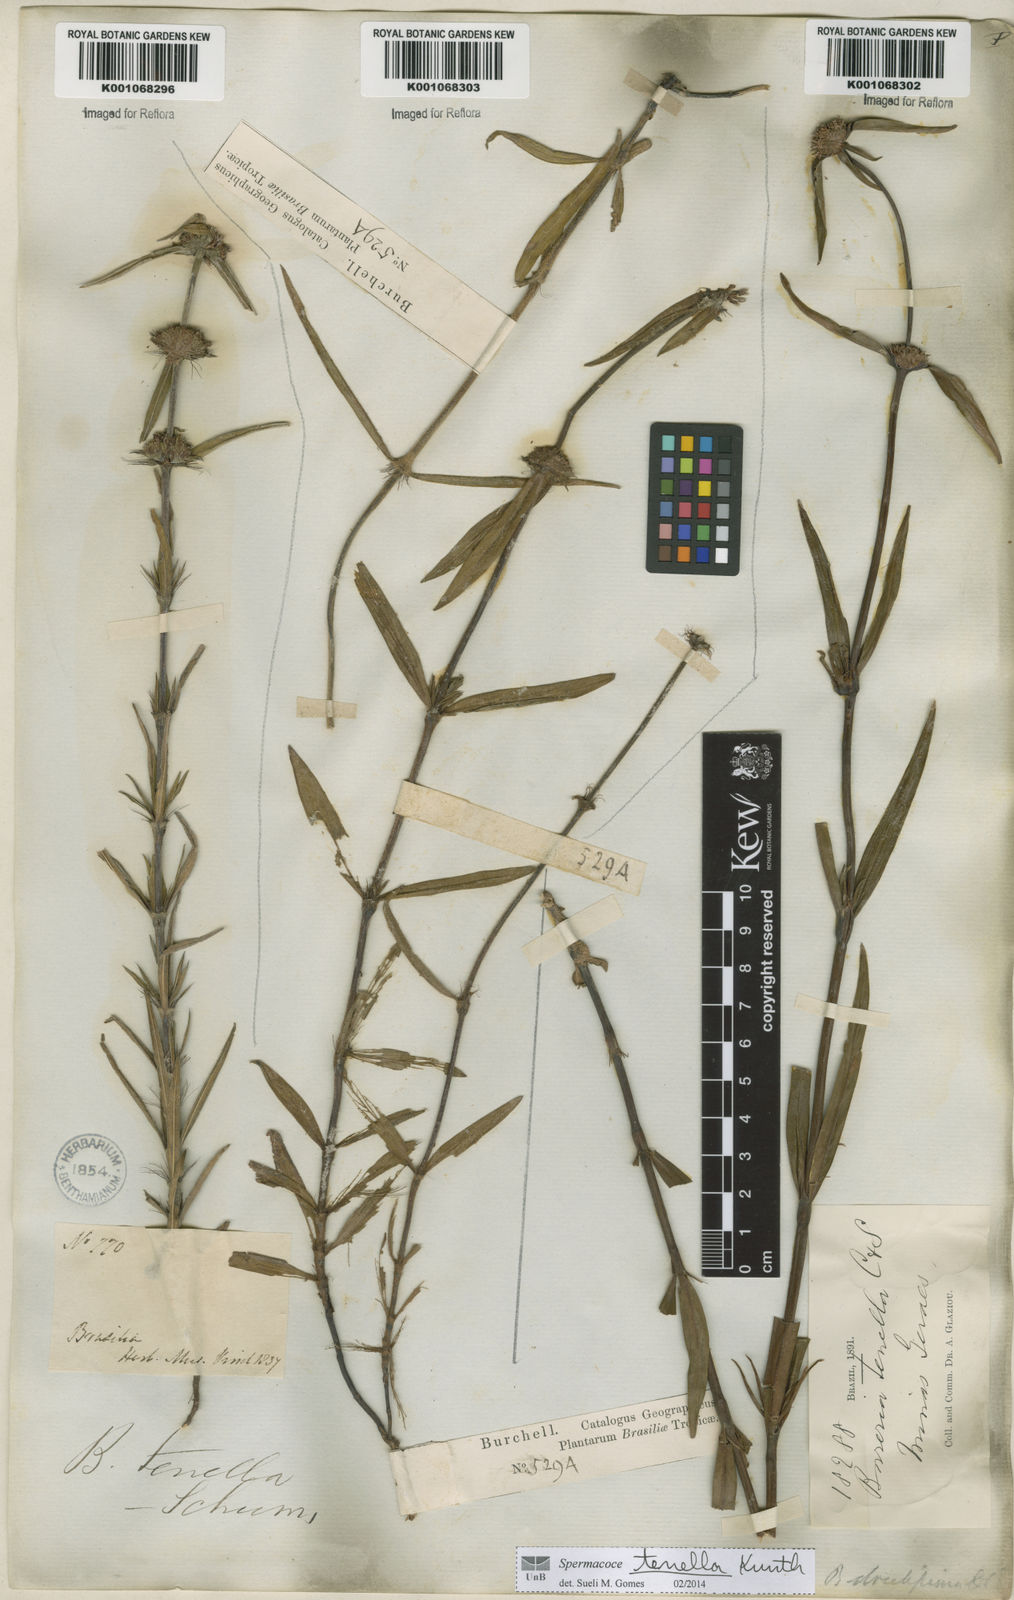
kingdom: Plantae
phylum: Tracheophyta
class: Magnoliopsida
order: Gentianales
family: Rubiaceae
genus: Spermacoce
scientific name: Spermacoce orinocensis
